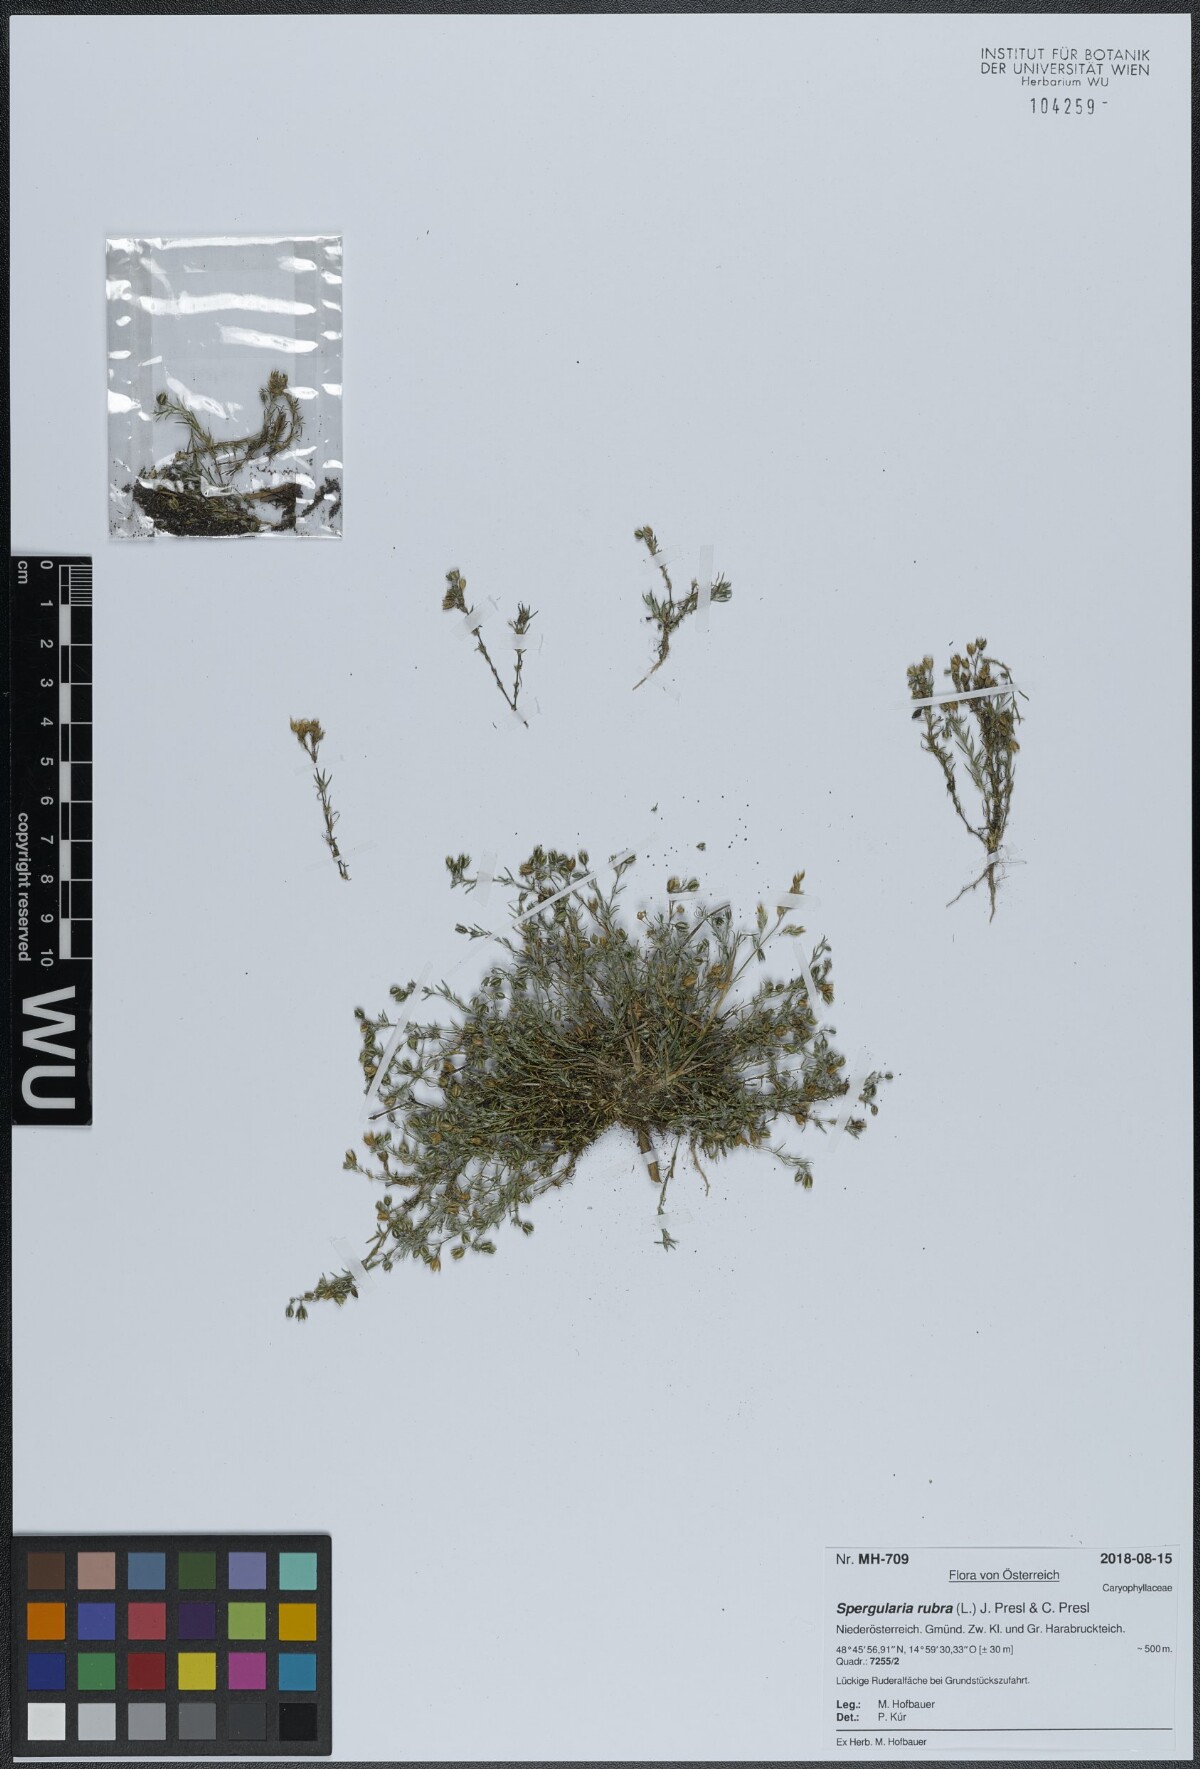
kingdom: Plantae
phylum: Tracheophyta
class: Magnoliopsida
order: Caryophyllales
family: Caryophyllaceae
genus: Spergularia
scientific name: Spergularia rubra
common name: Red sand-spurrey
